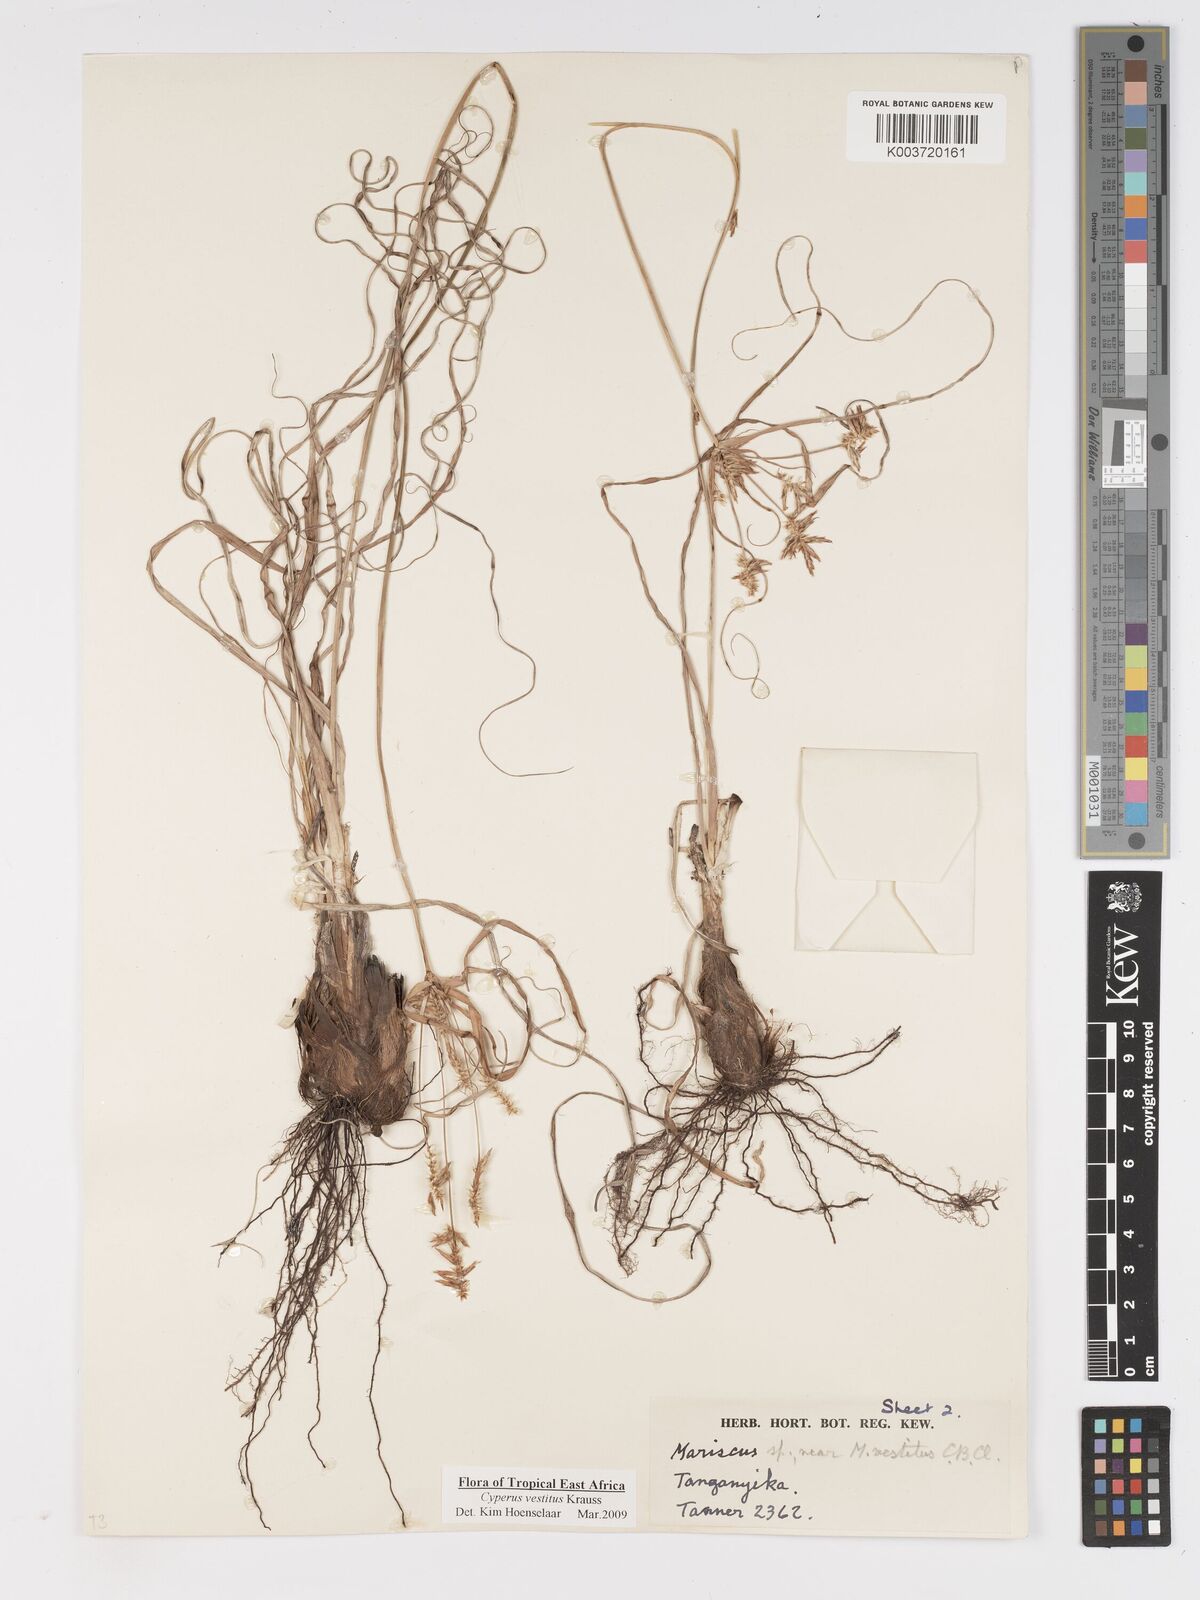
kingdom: Plantae
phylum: Tracheophyta
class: Liliopsida
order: Poales
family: Cyperaceae
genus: Cyperus
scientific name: Cyperus vestitus
